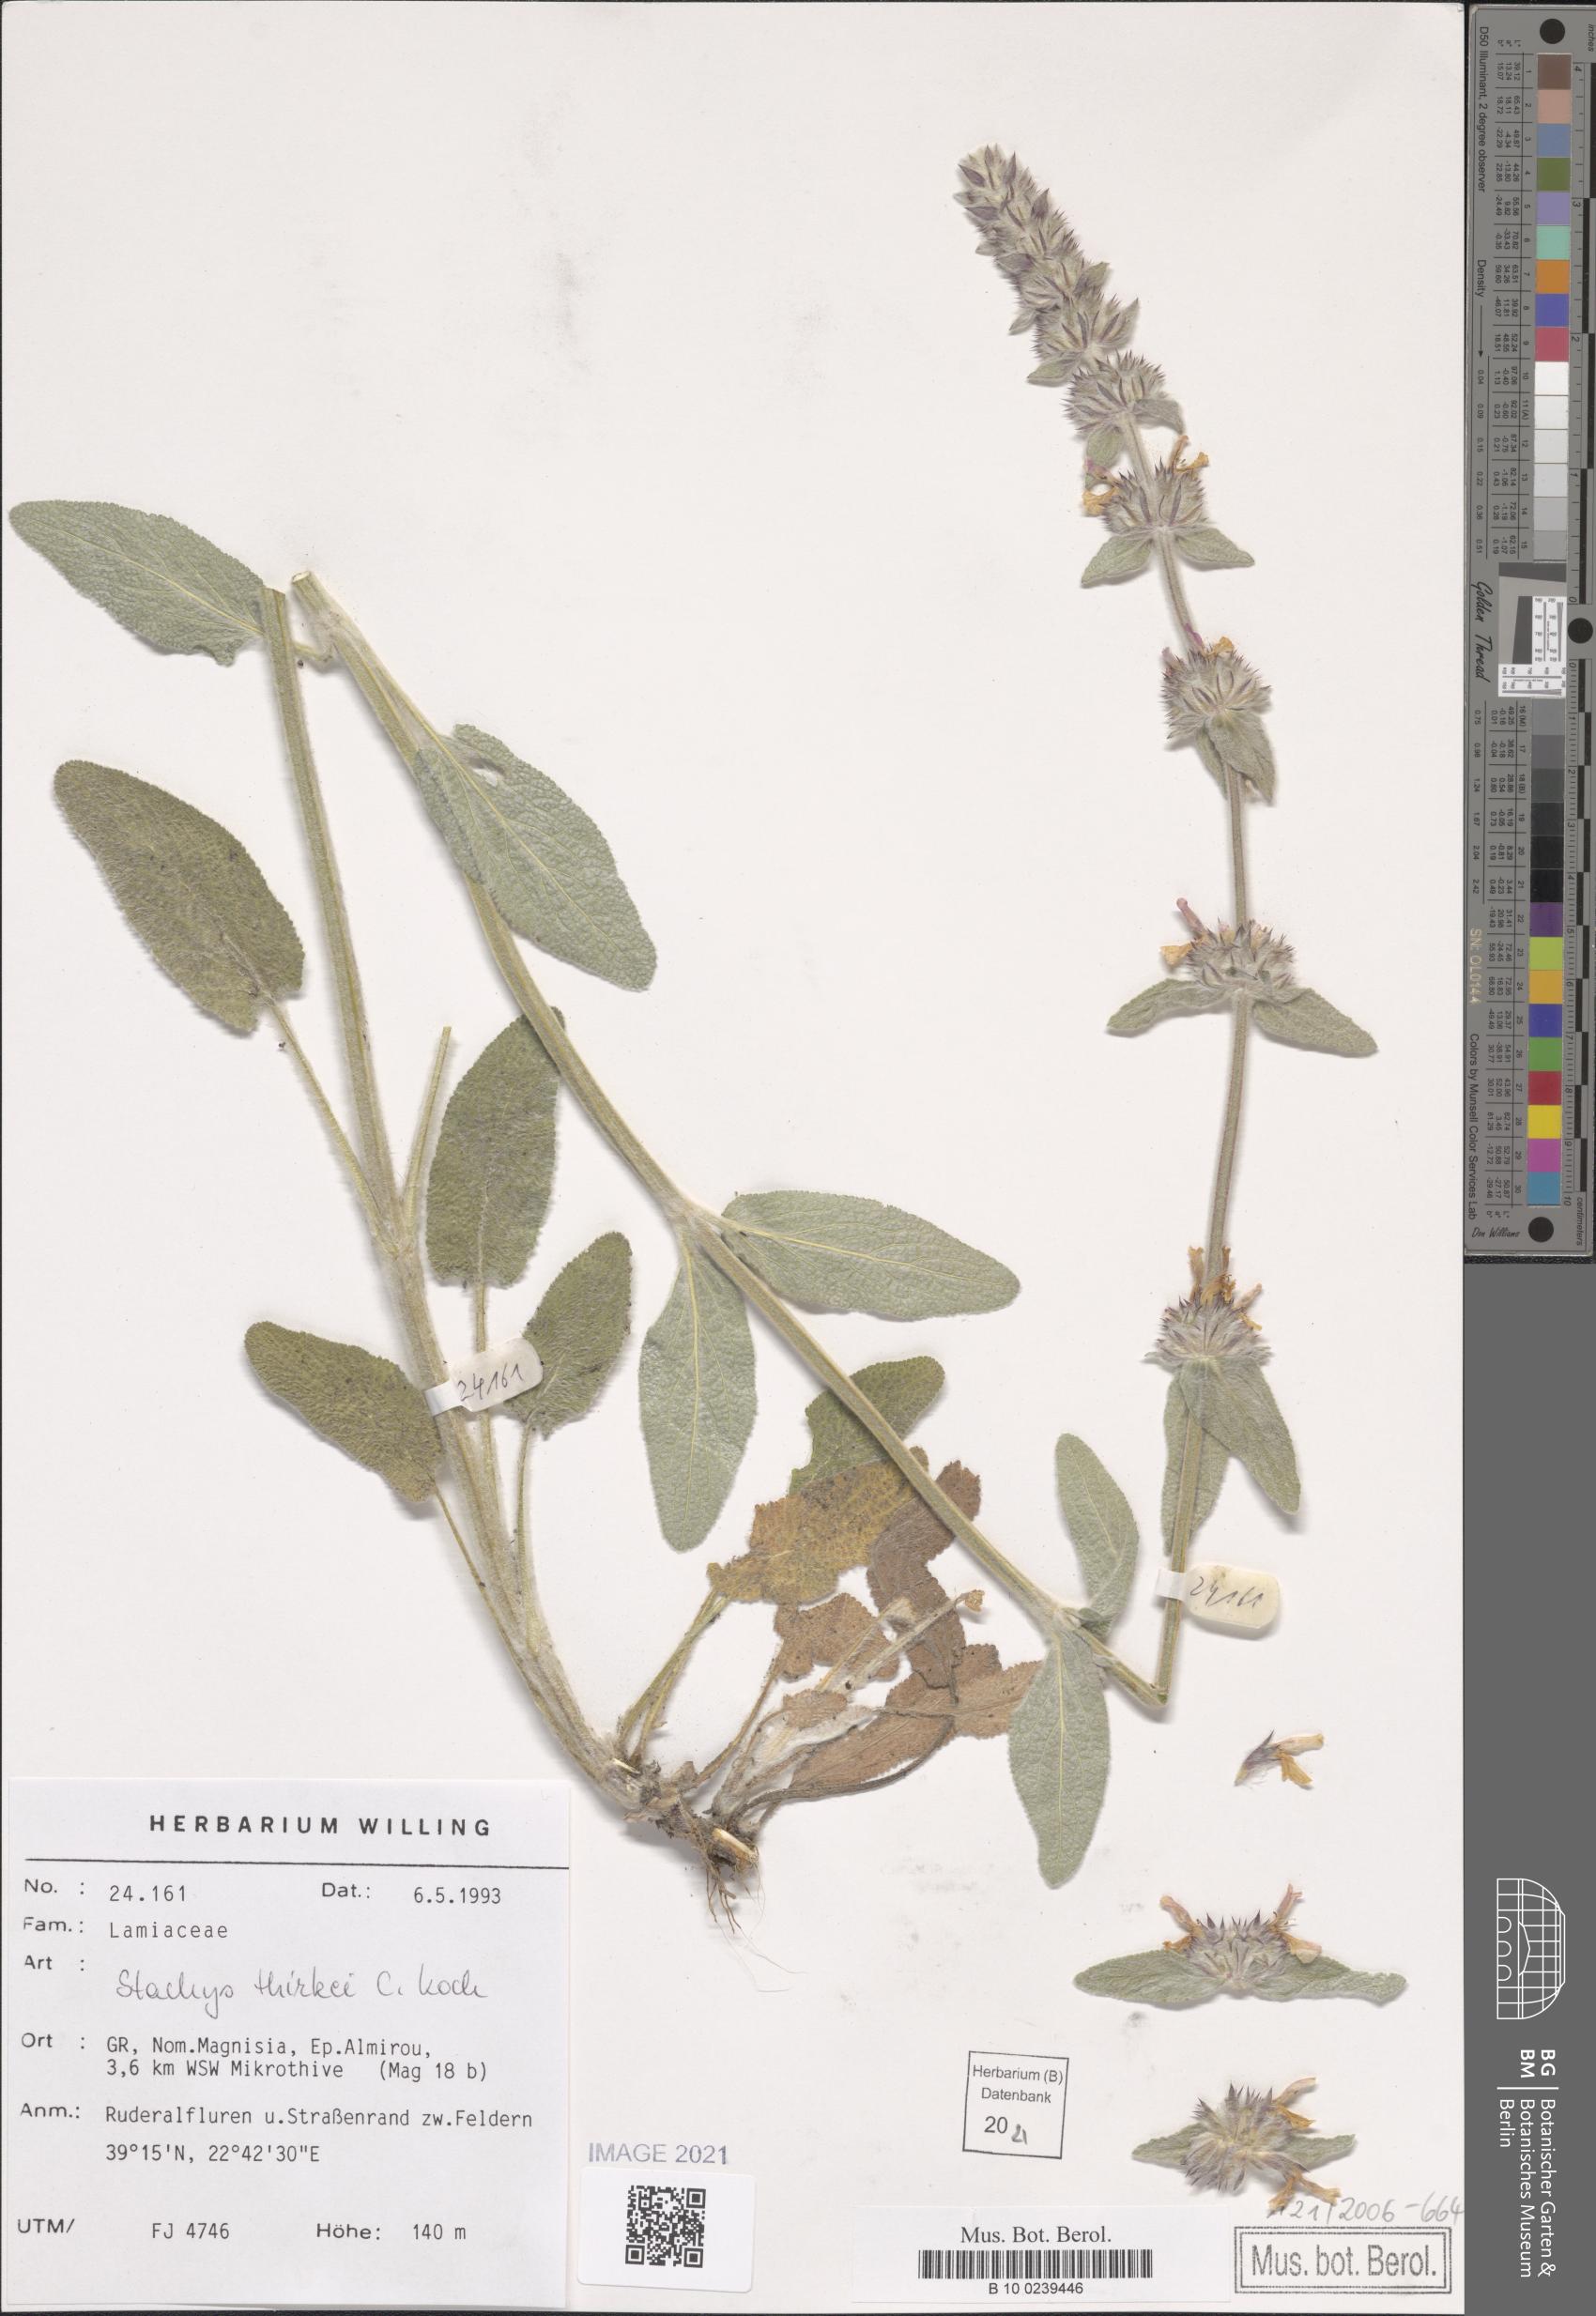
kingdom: Plantae
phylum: Tracheophyta
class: Magnoliopsida
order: Lamiales
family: Lamiaceae
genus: Stachys
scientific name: Stachys thirkei
